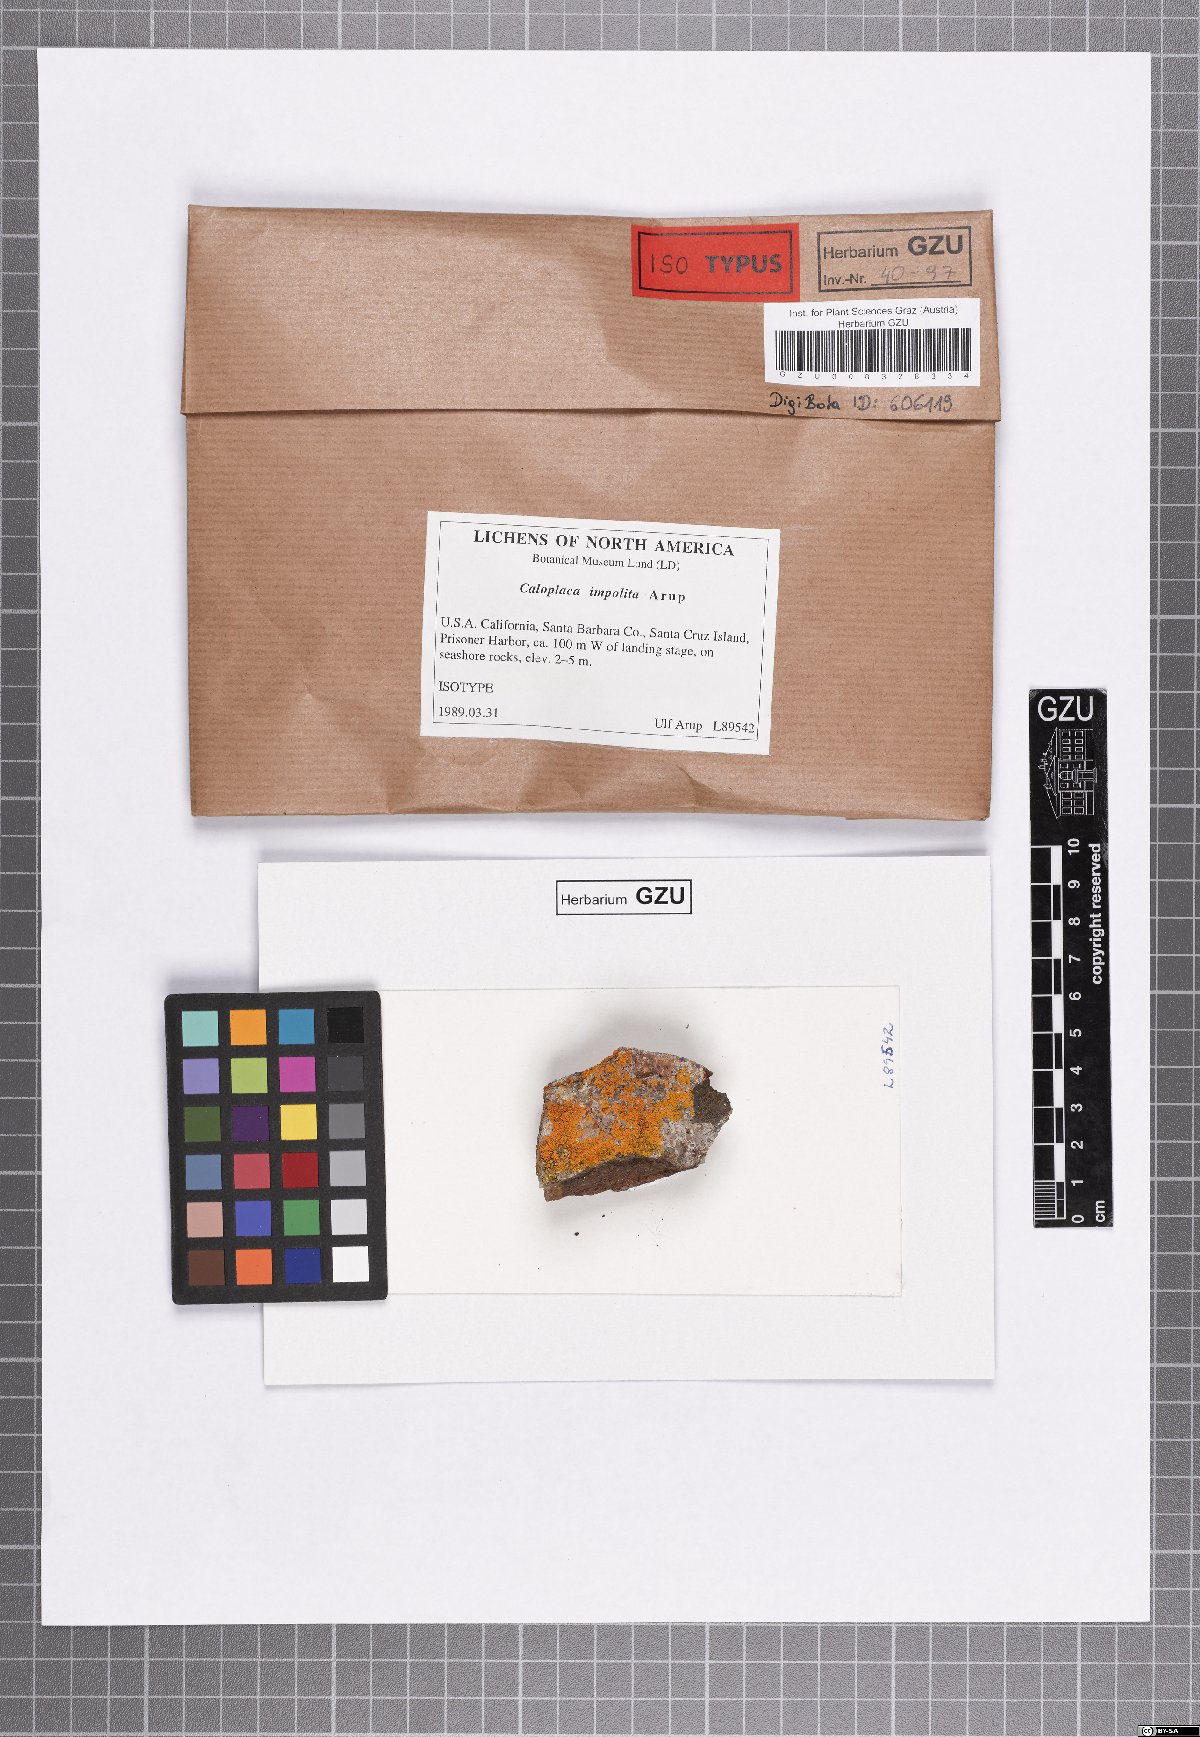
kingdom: Fungi
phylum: Ascomycota
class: Lecanoromycetes
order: Teloschistales
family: Teloschistaceae
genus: Massjukiella
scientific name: Massjukiella impolita
